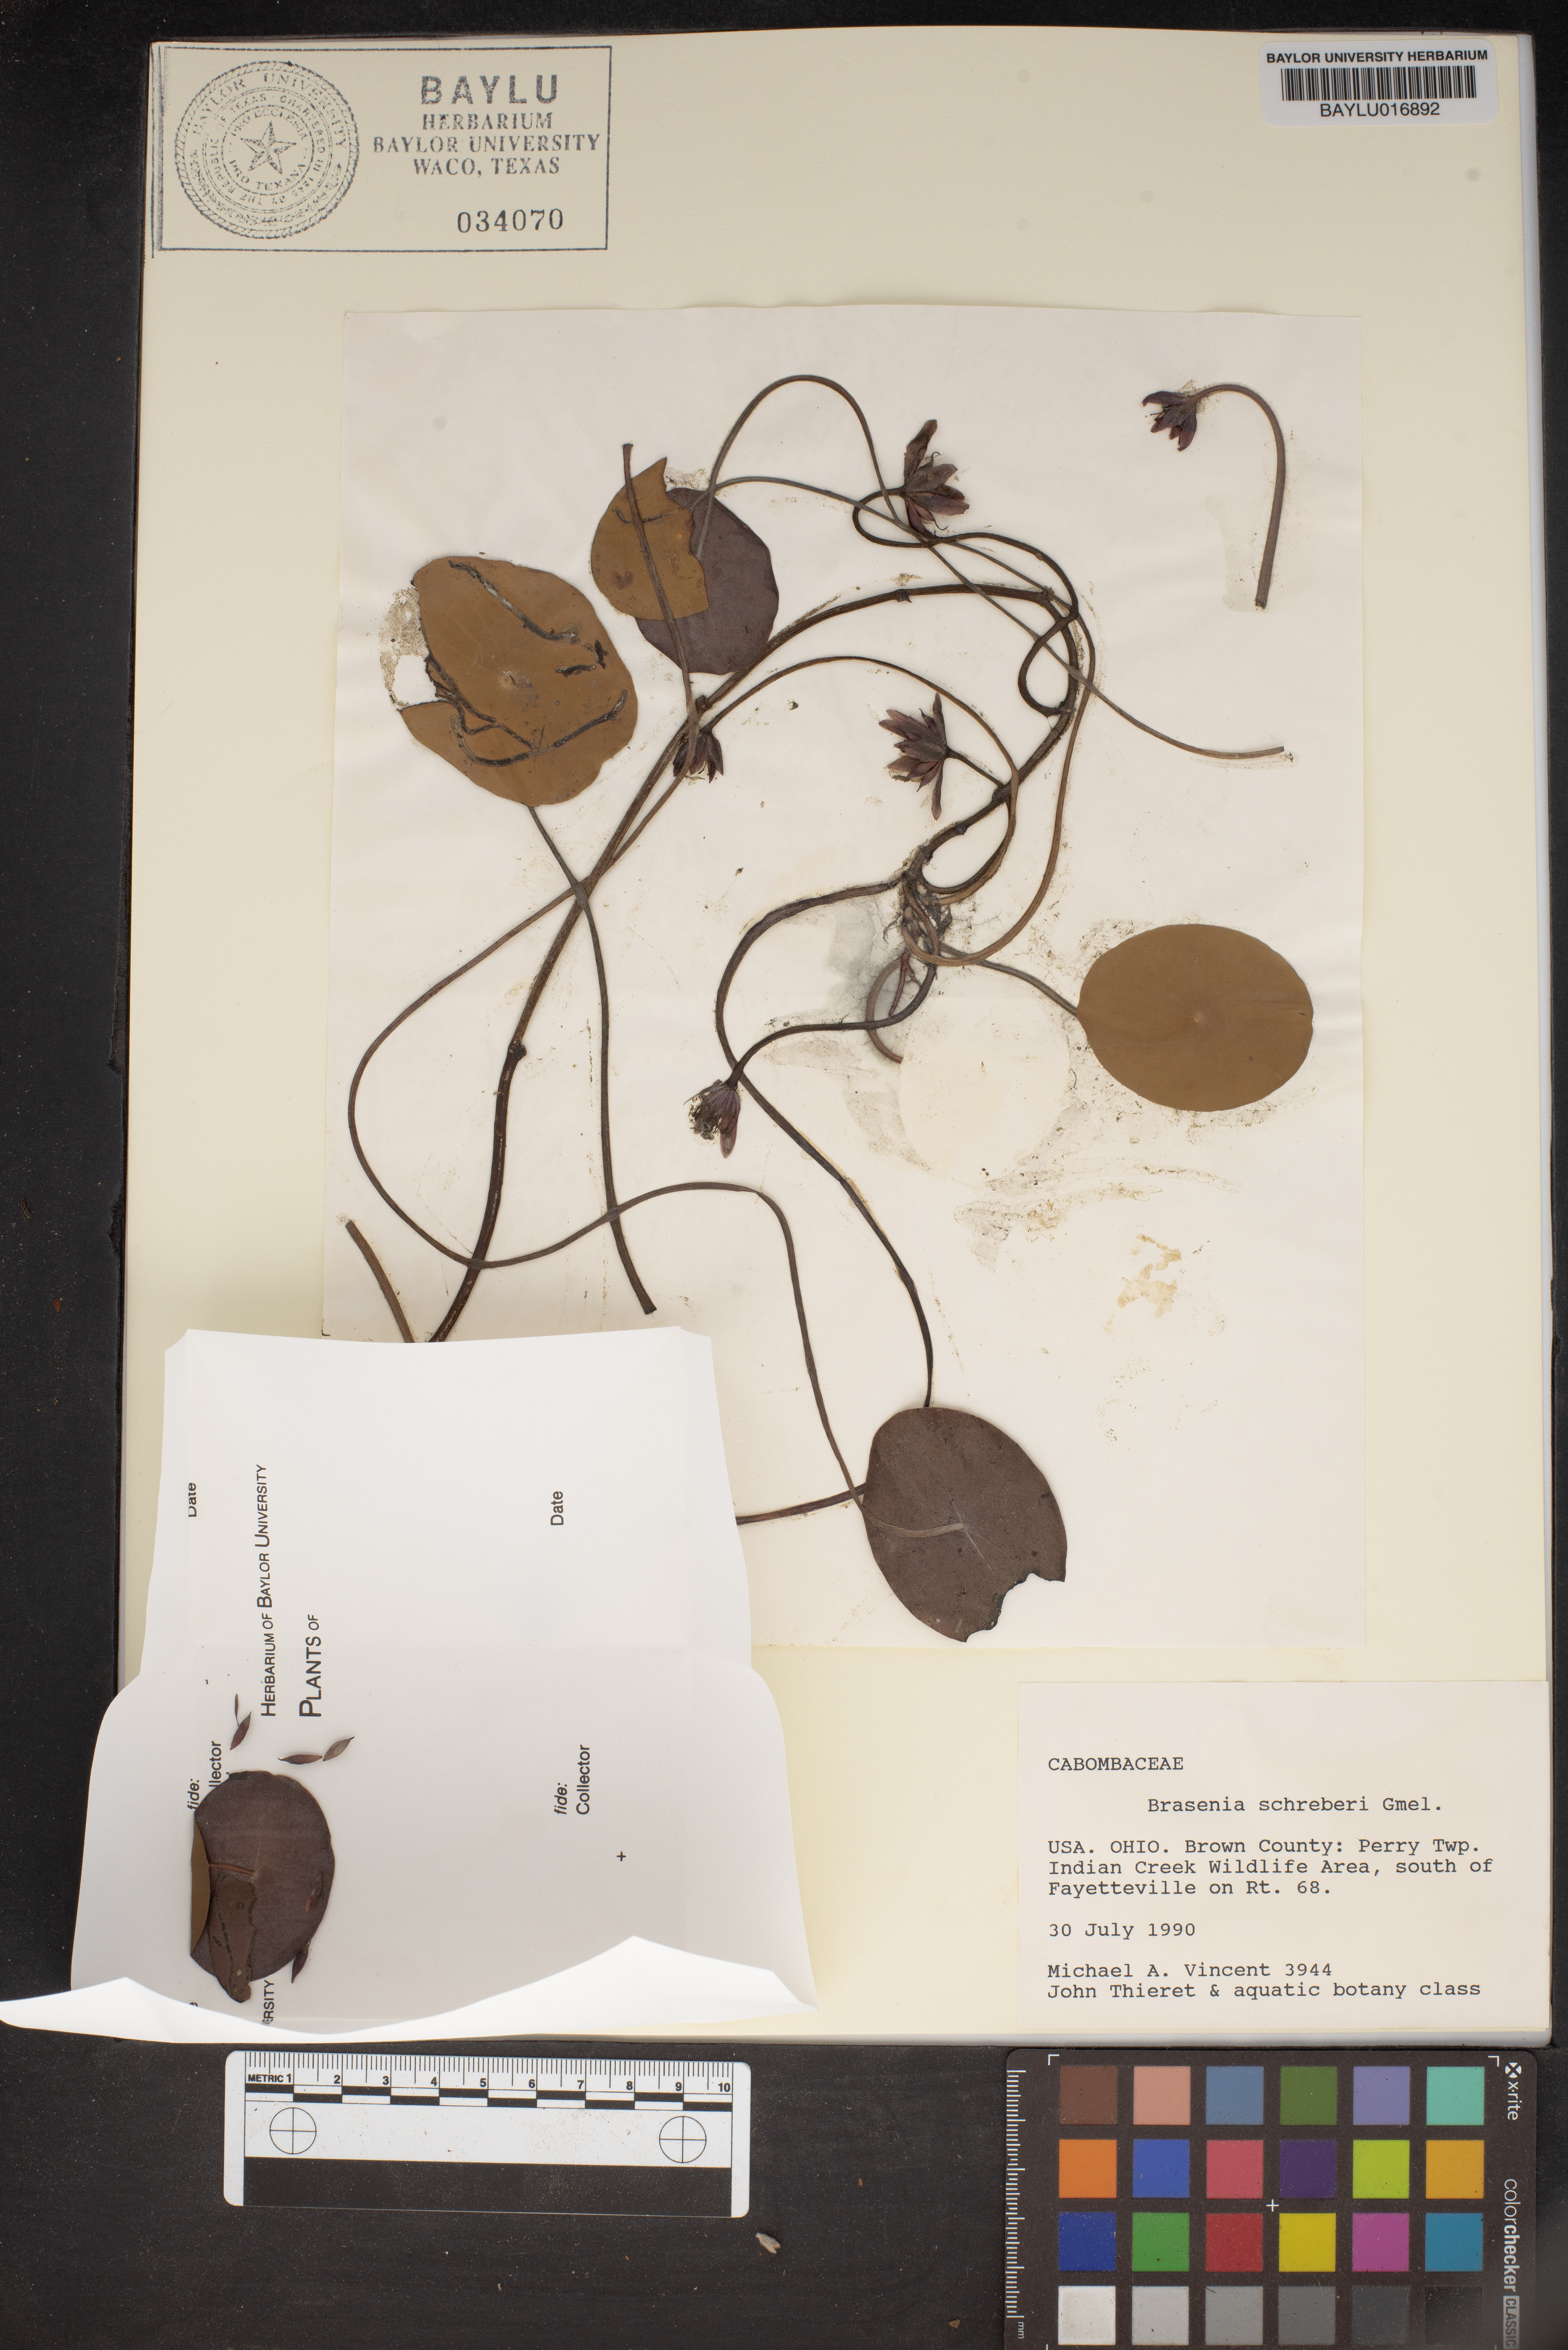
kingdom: Plantae
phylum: Tracheophyta
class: Magnoliopsida
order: Nymphaeales
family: Cabombaceae
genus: Brasenia
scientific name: Brasenia schreberi
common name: Water-shield
